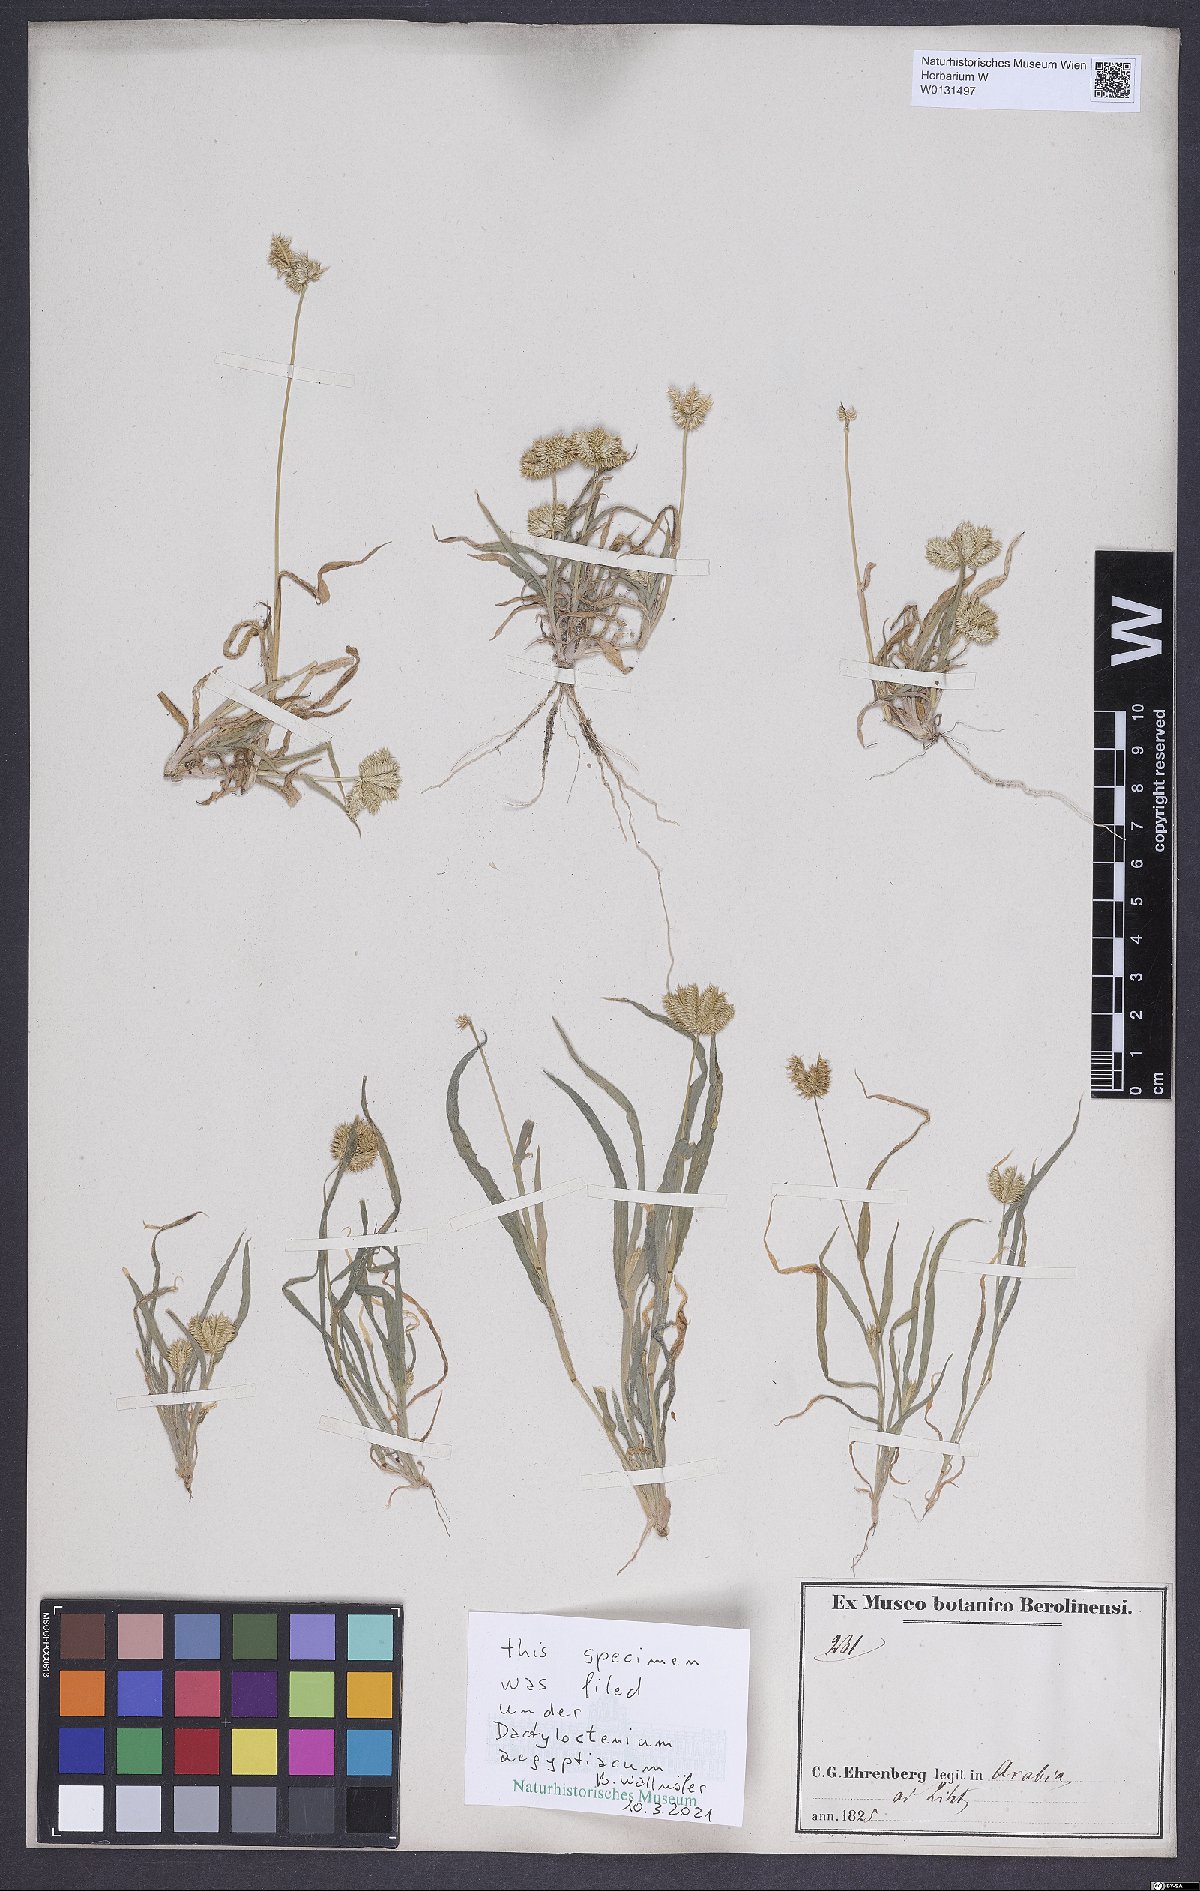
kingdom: Plantae
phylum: Tracheophyta
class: Liliopsida
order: Poales
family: Poaceae
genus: Dactyloctenium
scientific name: Dactyloctenium aegyptium
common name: Egyptian grass
